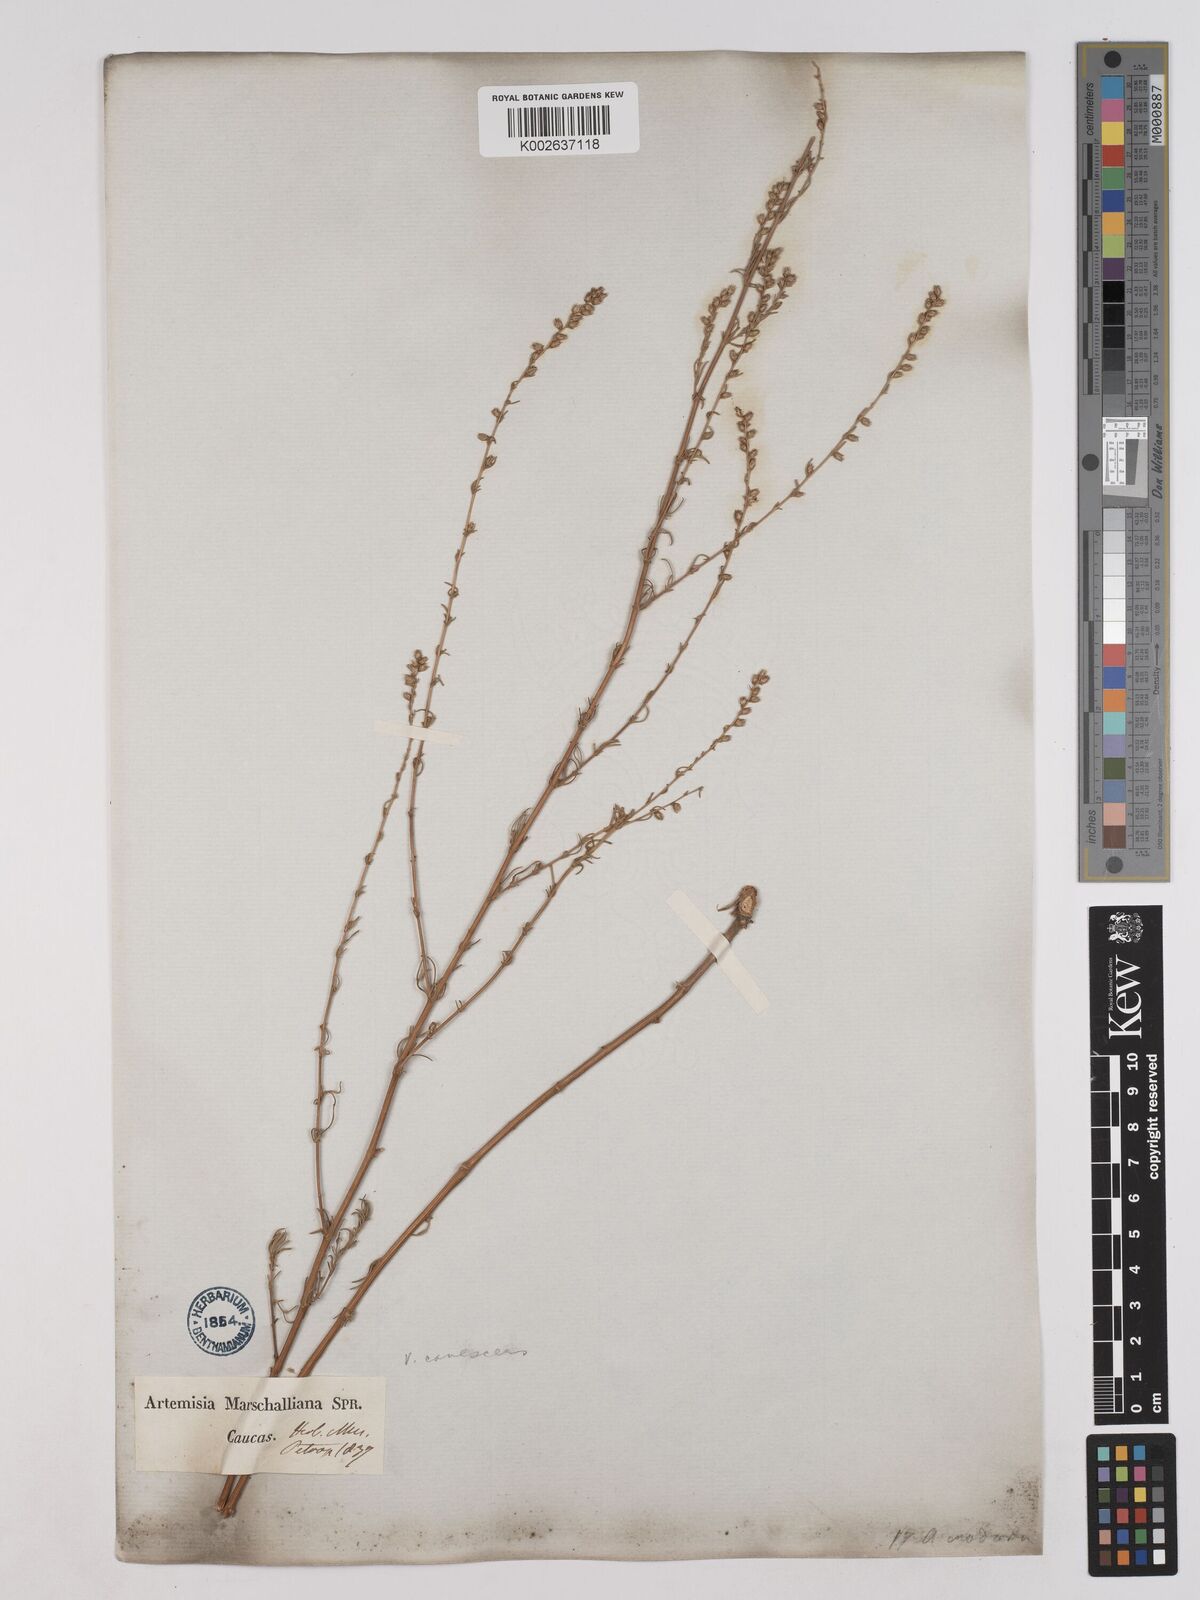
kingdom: Plantae
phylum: Tracheophyta
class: Magnoliopsida
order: Asterales
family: Asteraceae
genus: Artemisia
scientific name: Artemisia campestris
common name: Field wormwood
